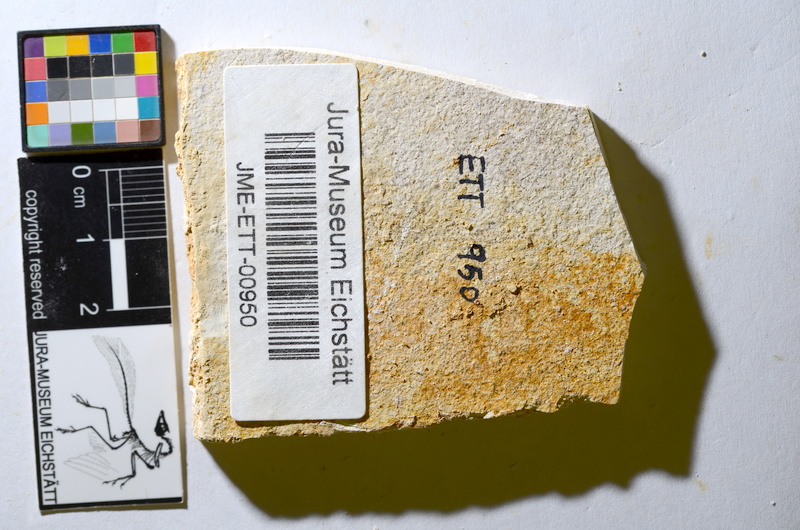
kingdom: Animalia
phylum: Chordata
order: Salmoniformes
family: Orthogonikleithridae
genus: Orthogonikleithrus
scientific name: Orthogonikleithrus hoelli
